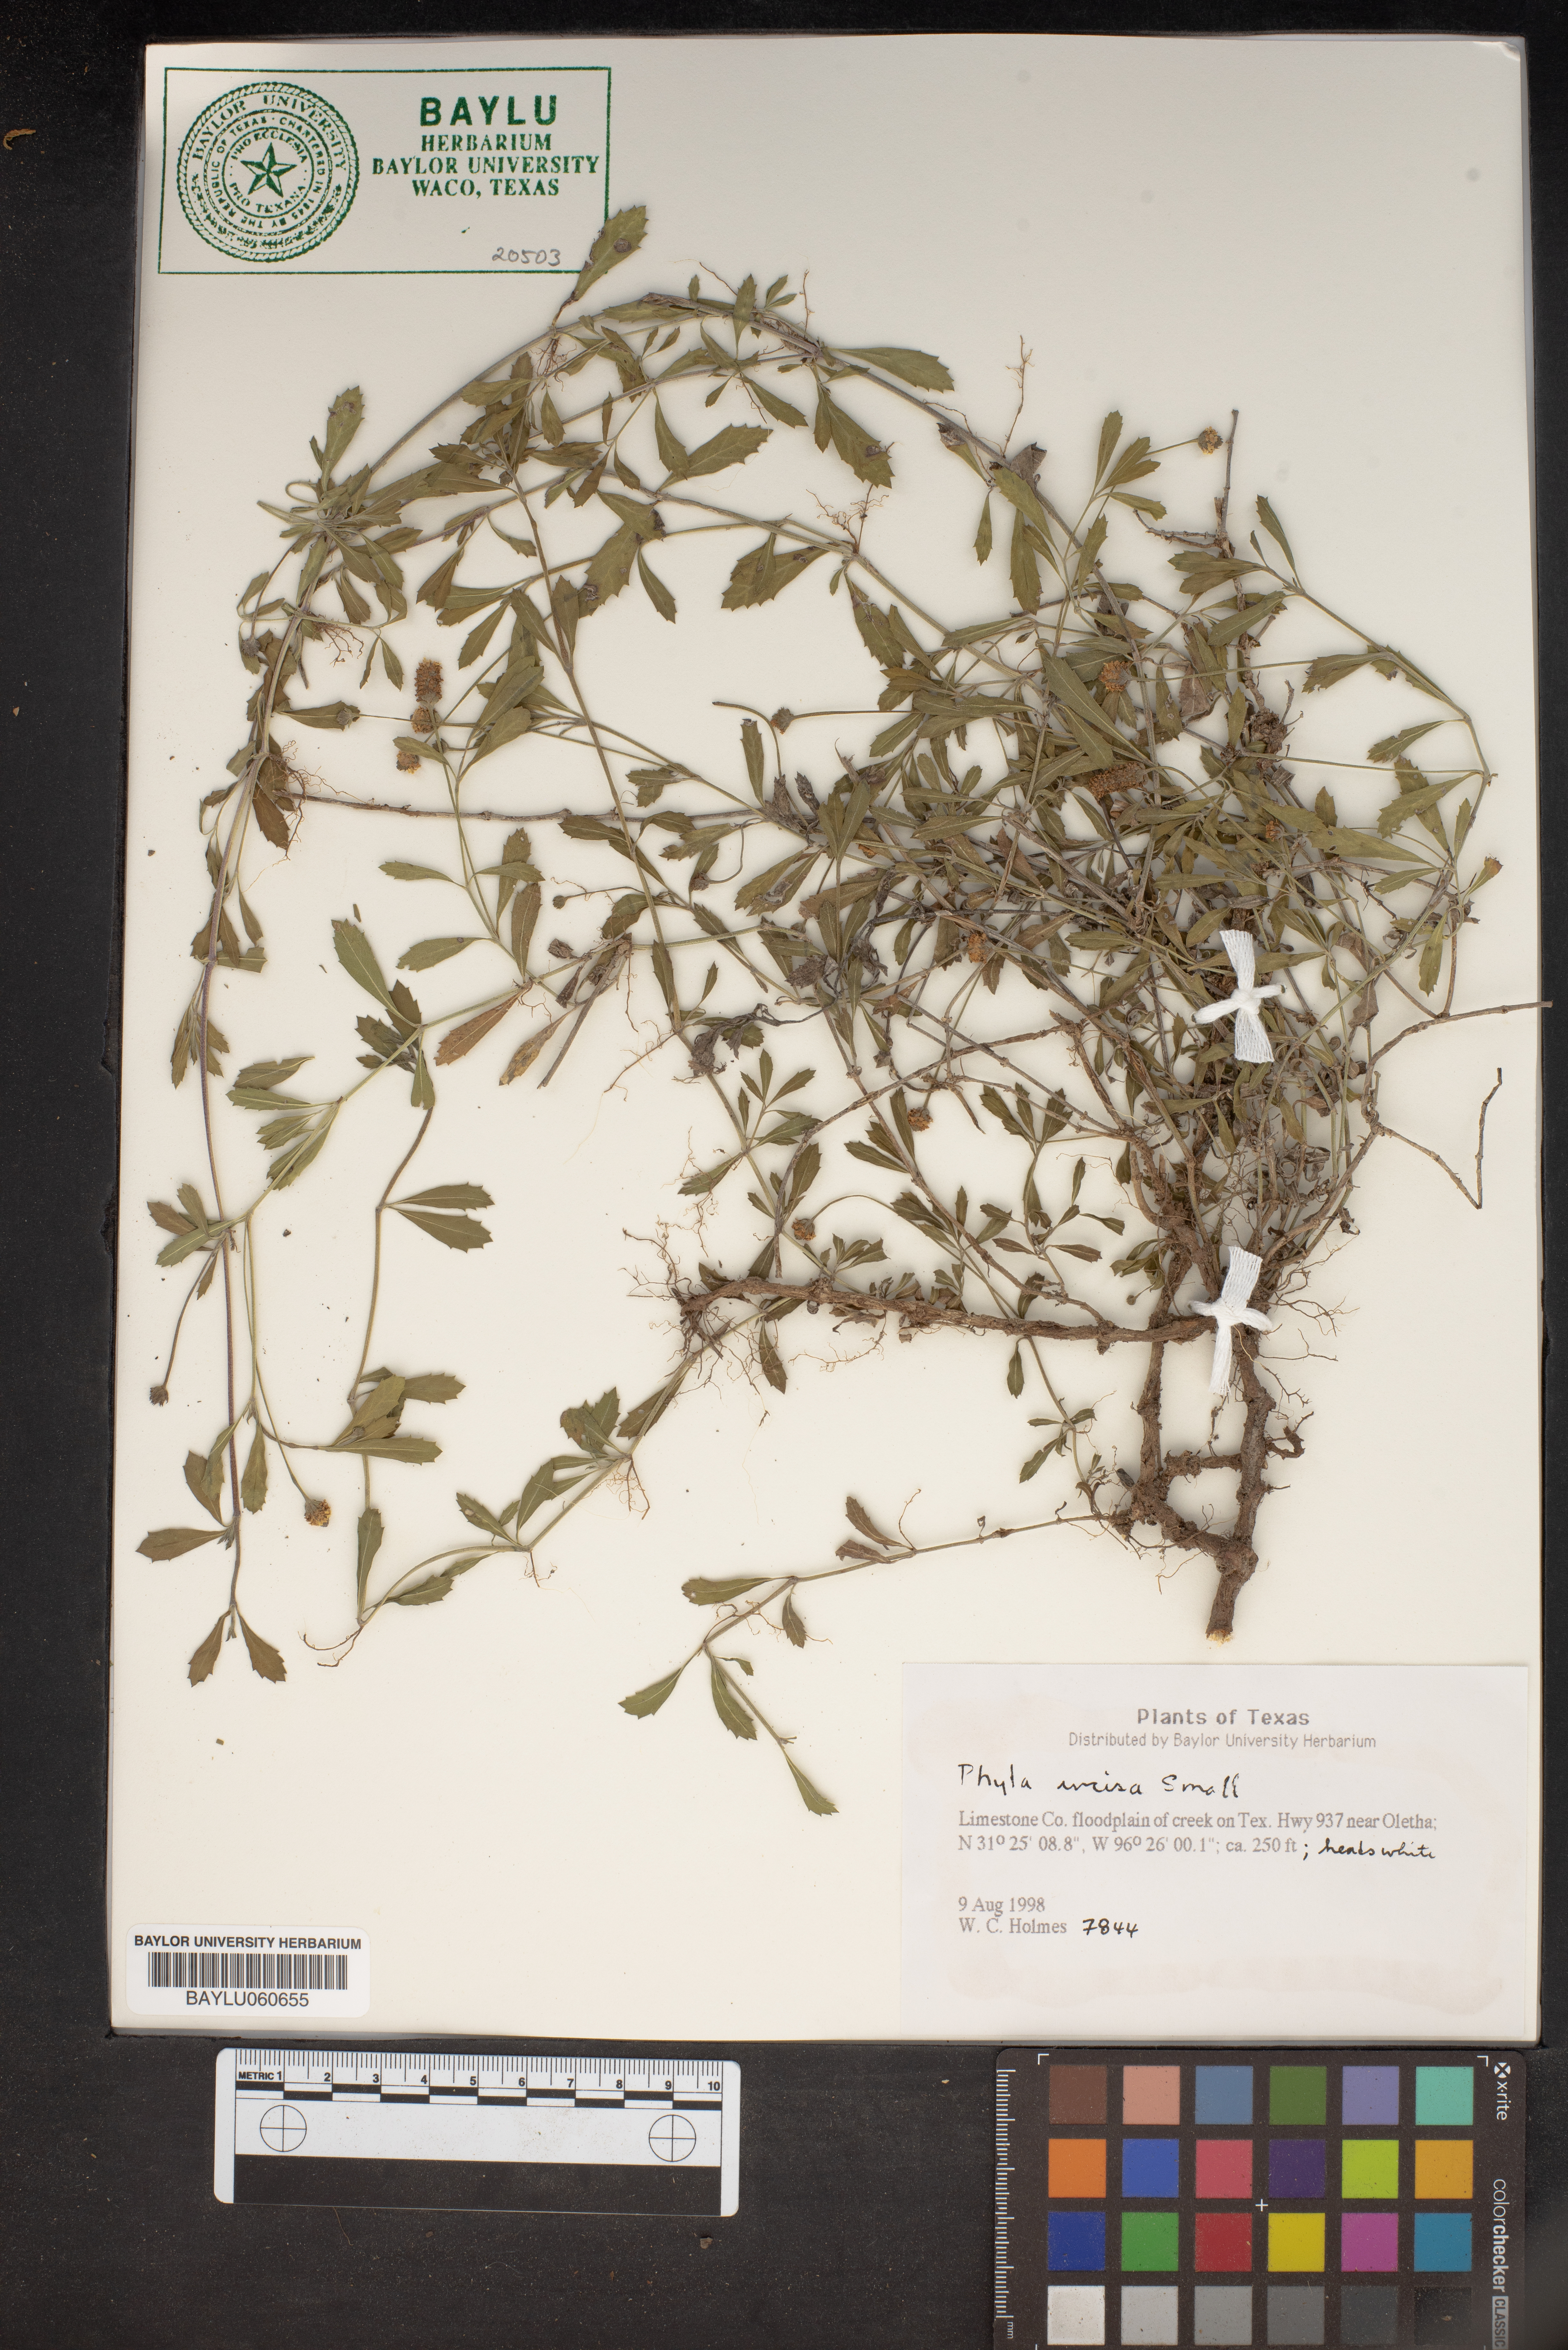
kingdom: Plantae
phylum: Tracheophyta
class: Magnoliopsida
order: Lamiales
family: Verbenaceae
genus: Phyla
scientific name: Phyla nodiflora
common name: Frogfruit
